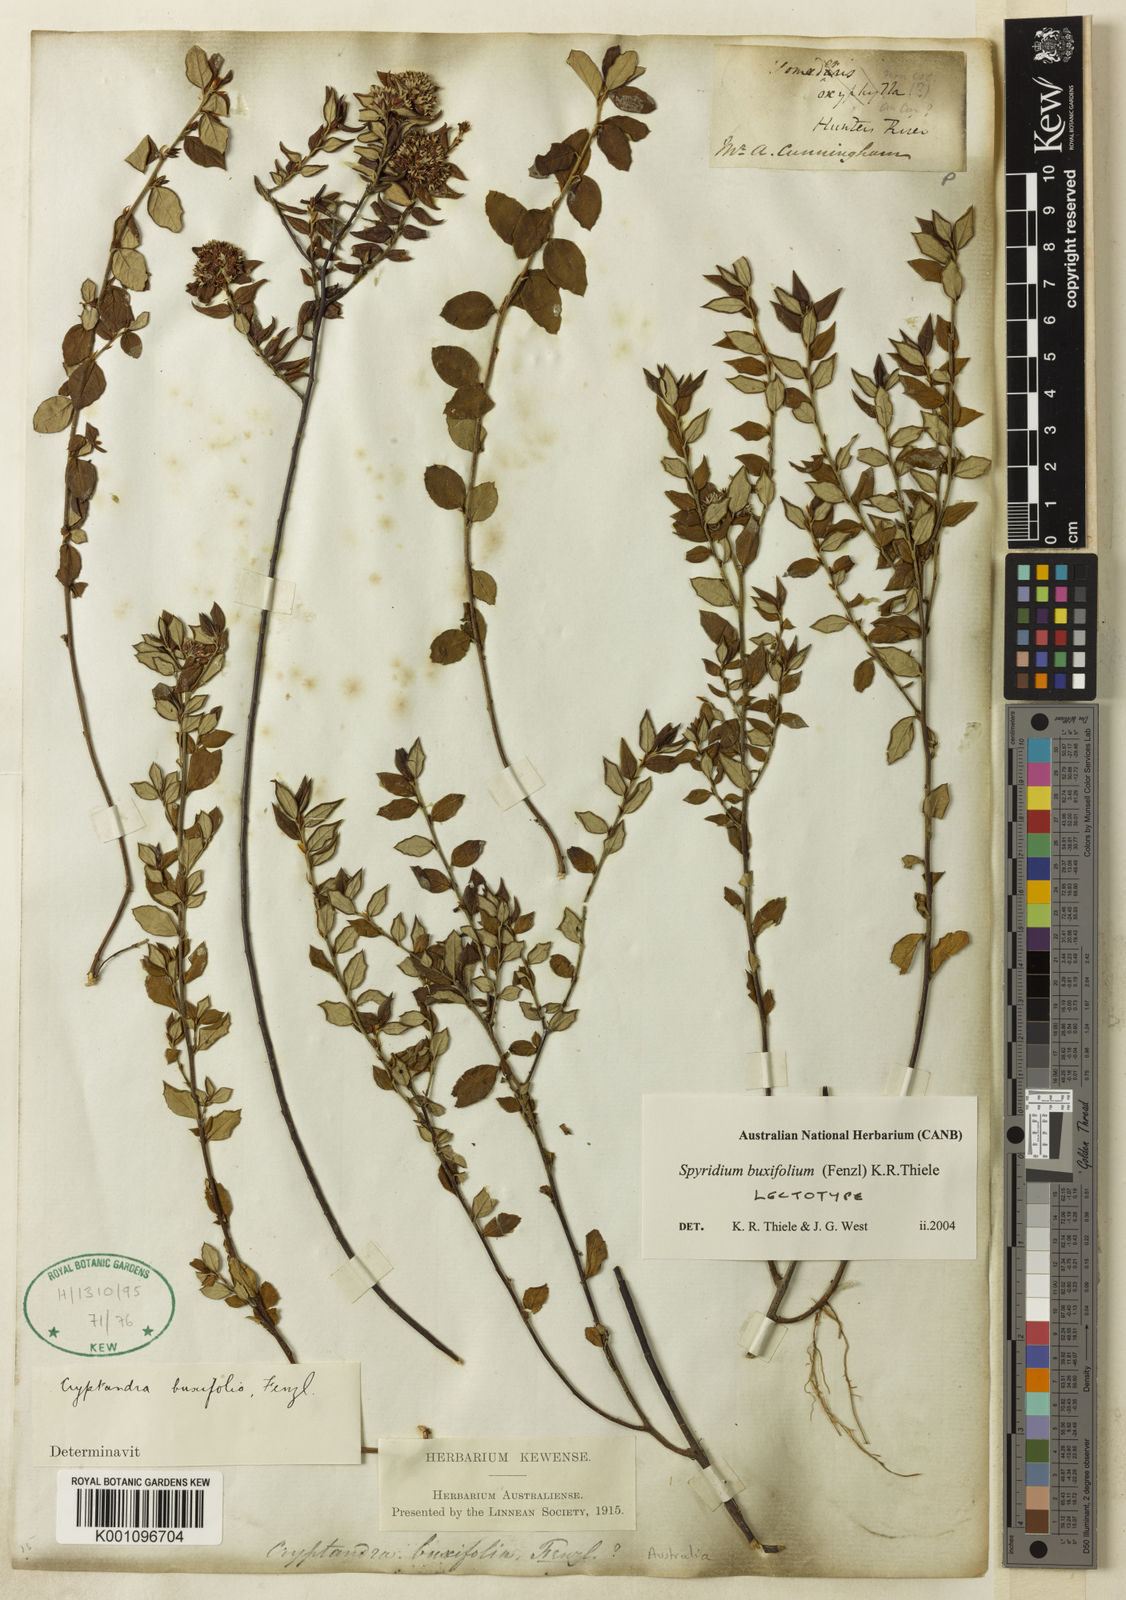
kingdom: Plantae
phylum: Tracheophyta
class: Magnoliopsida
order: Rosales
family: Rhamnaceae
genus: Spyridium
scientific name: Spyridium buxifolium
